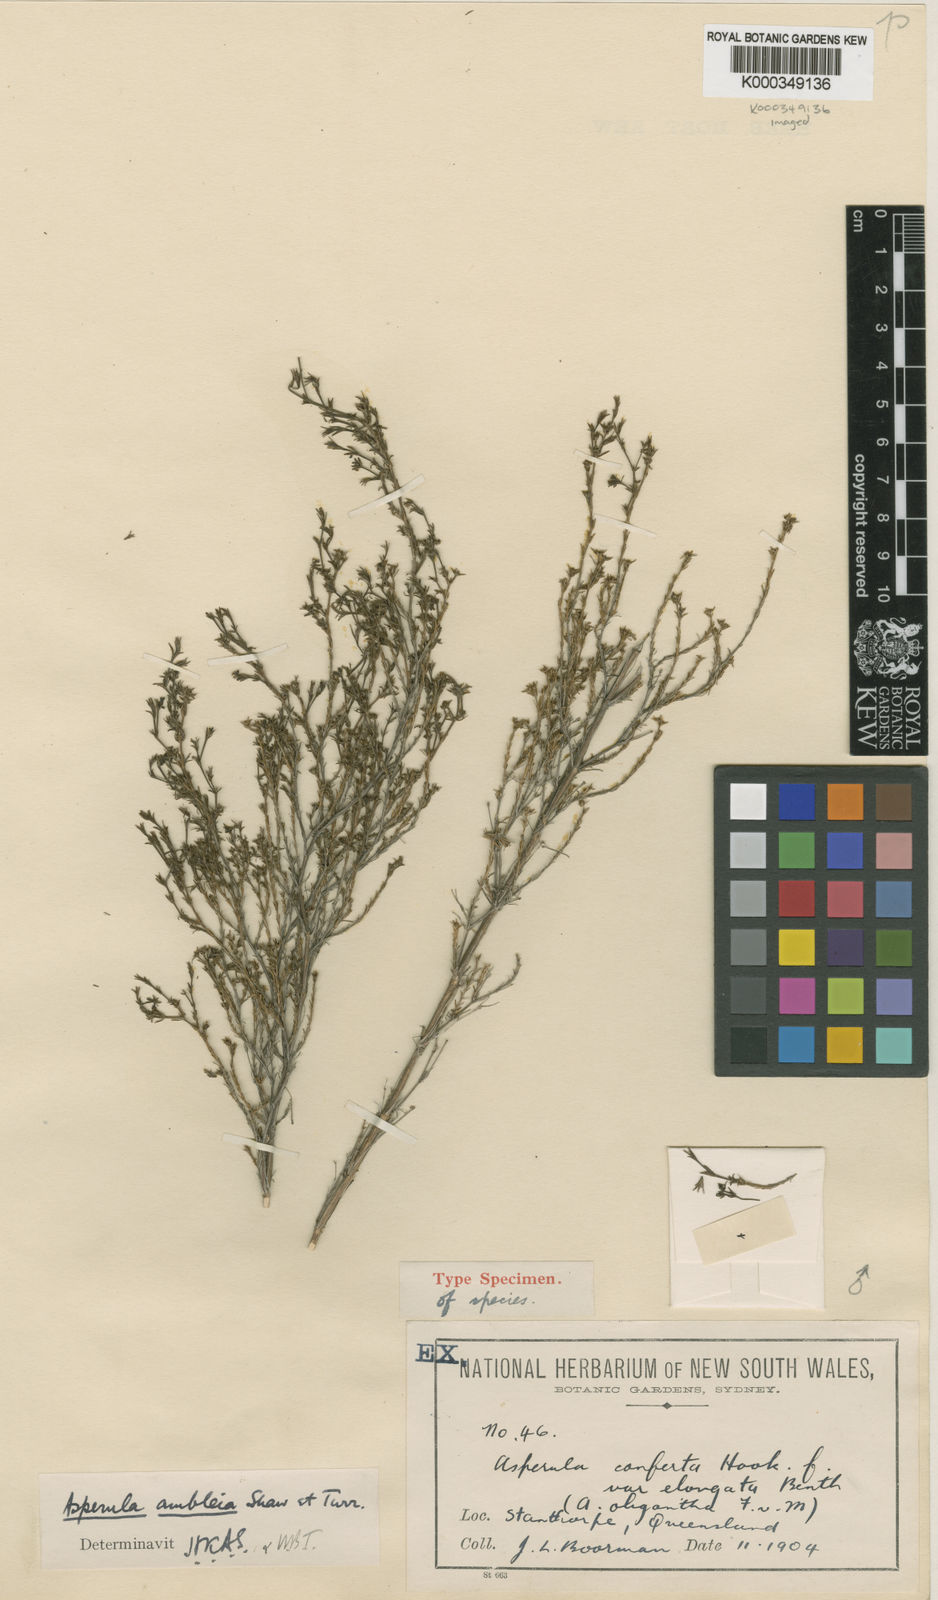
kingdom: Plantae
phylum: Tracheophyta
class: Magnoliopsida
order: Gentianales
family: Rubiaceae
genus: Asperula
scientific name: Asperula ambleia
